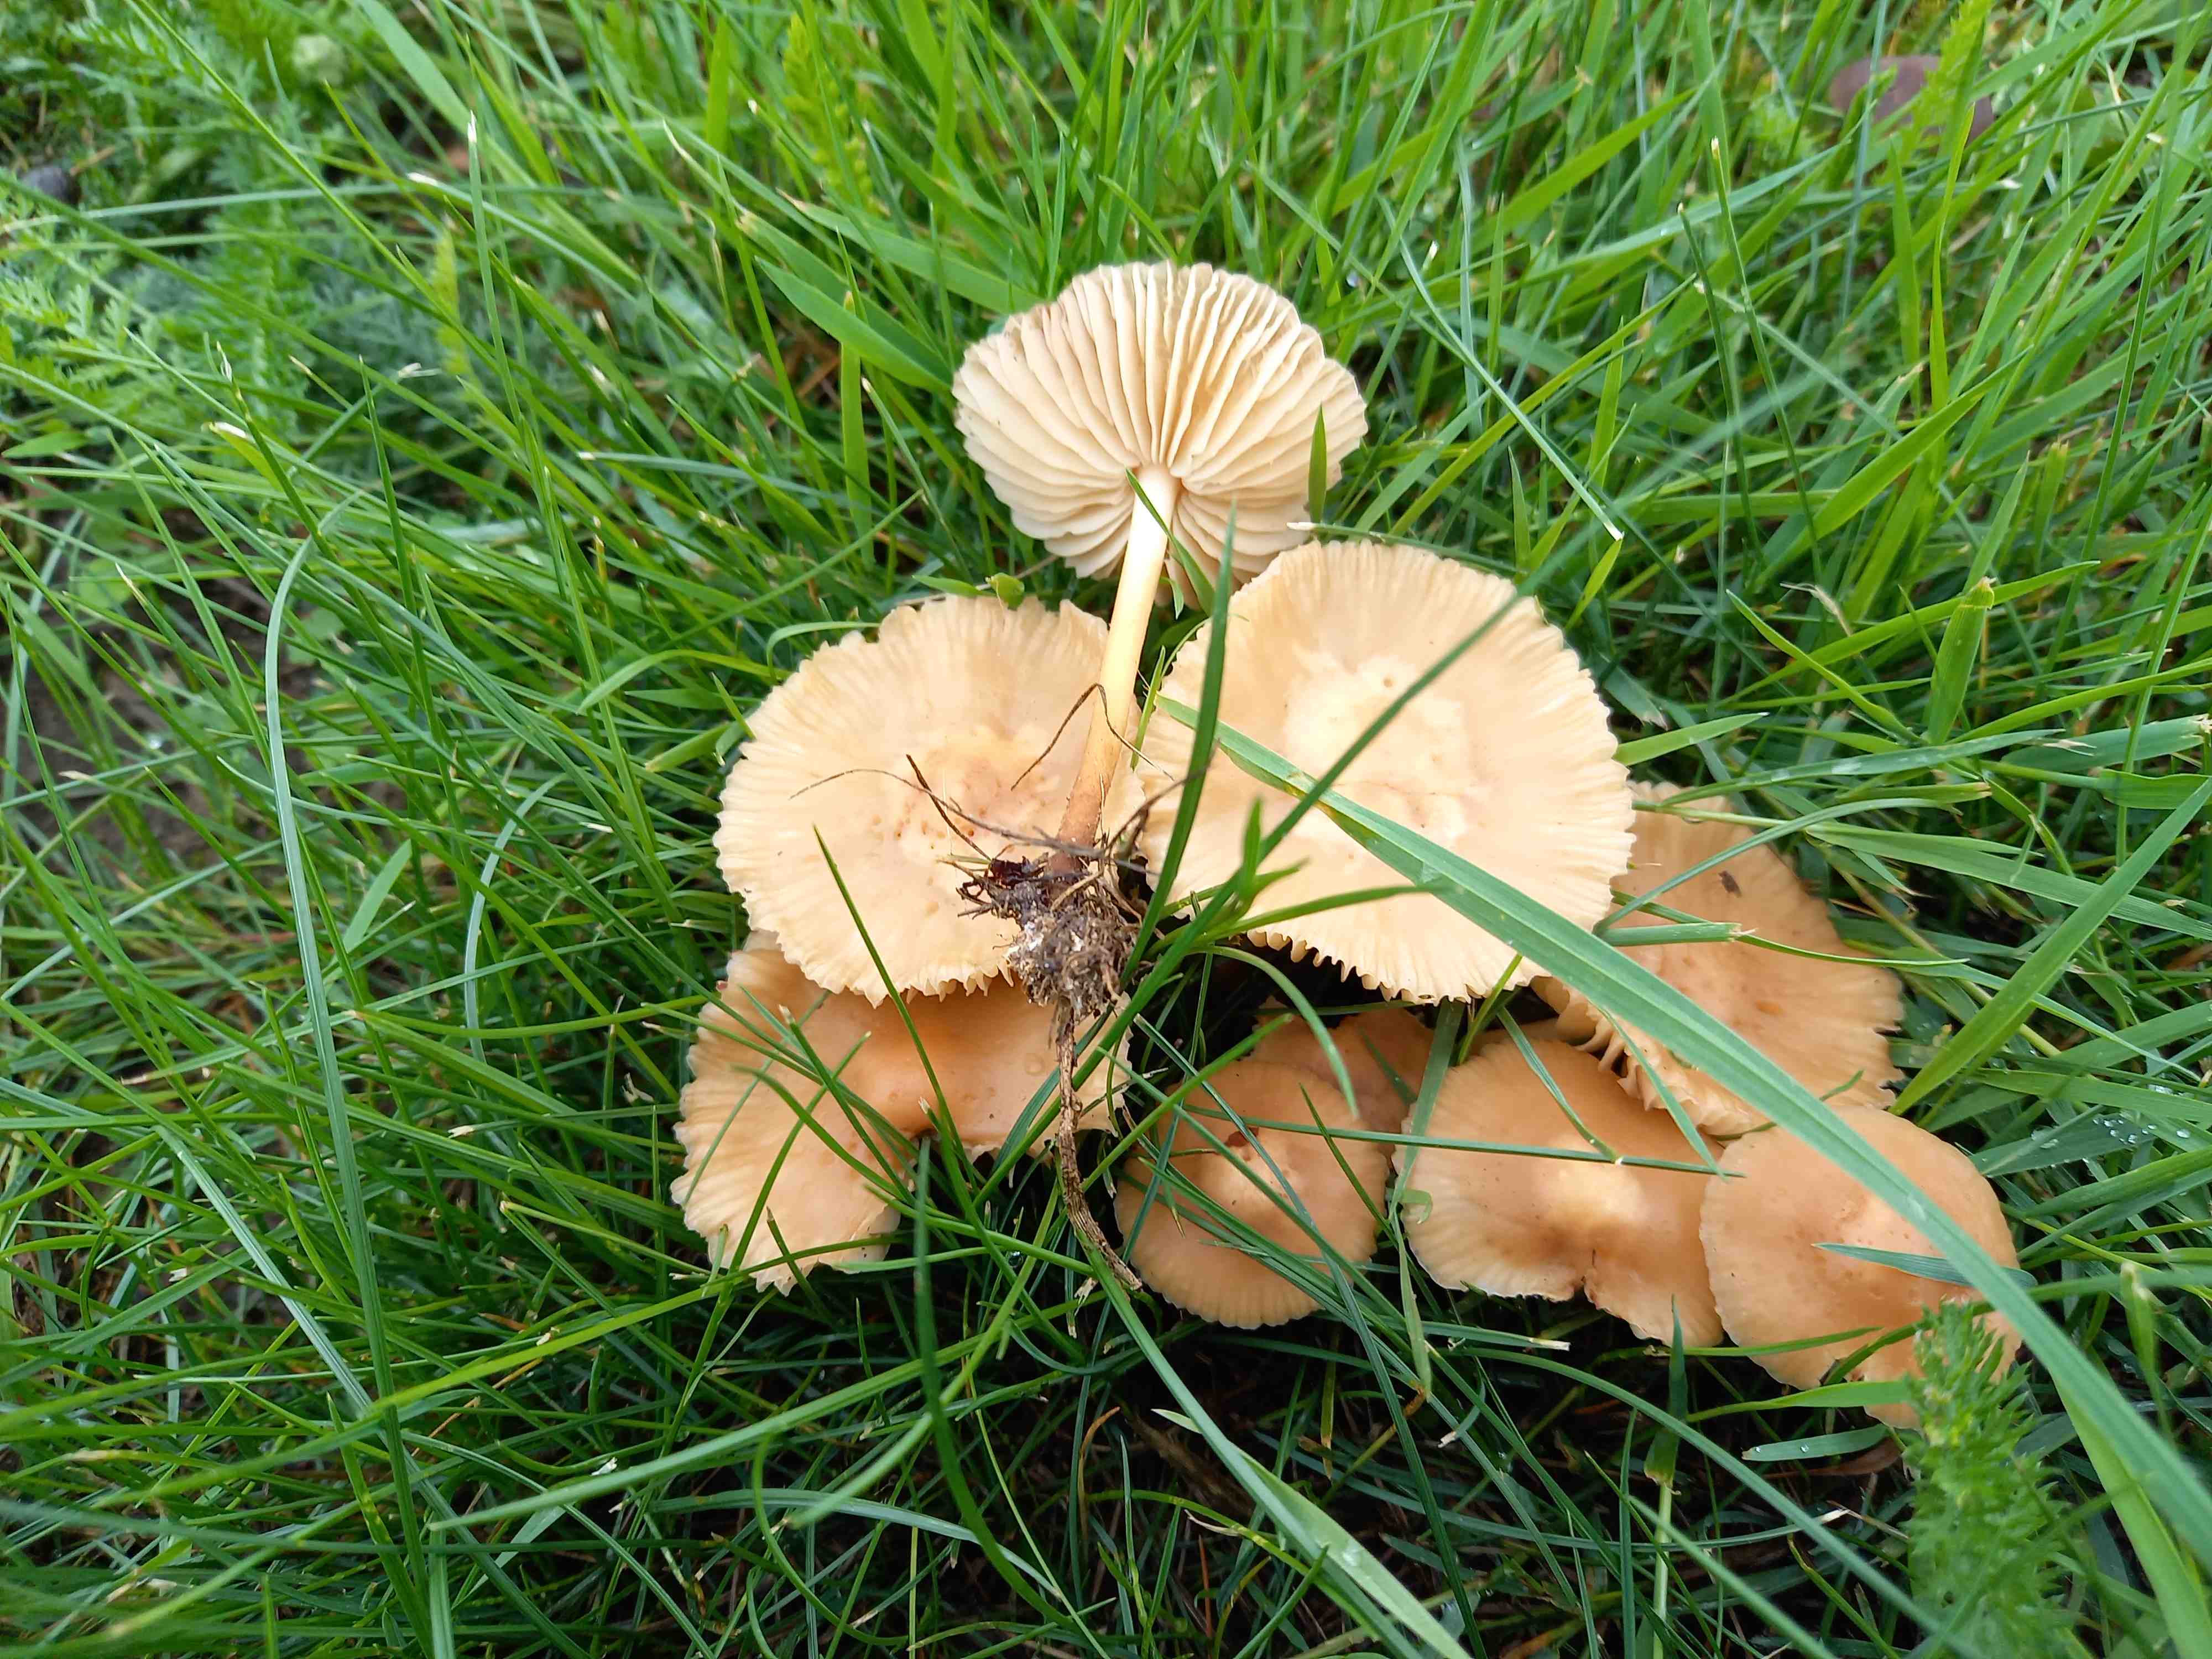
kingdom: Fungi
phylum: Basidiomycota
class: Agaricomycetes
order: Agaricales
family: Marasmiaceae
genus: Marasmius
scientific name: Marasmius oreades
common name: elledans-bruskhat
